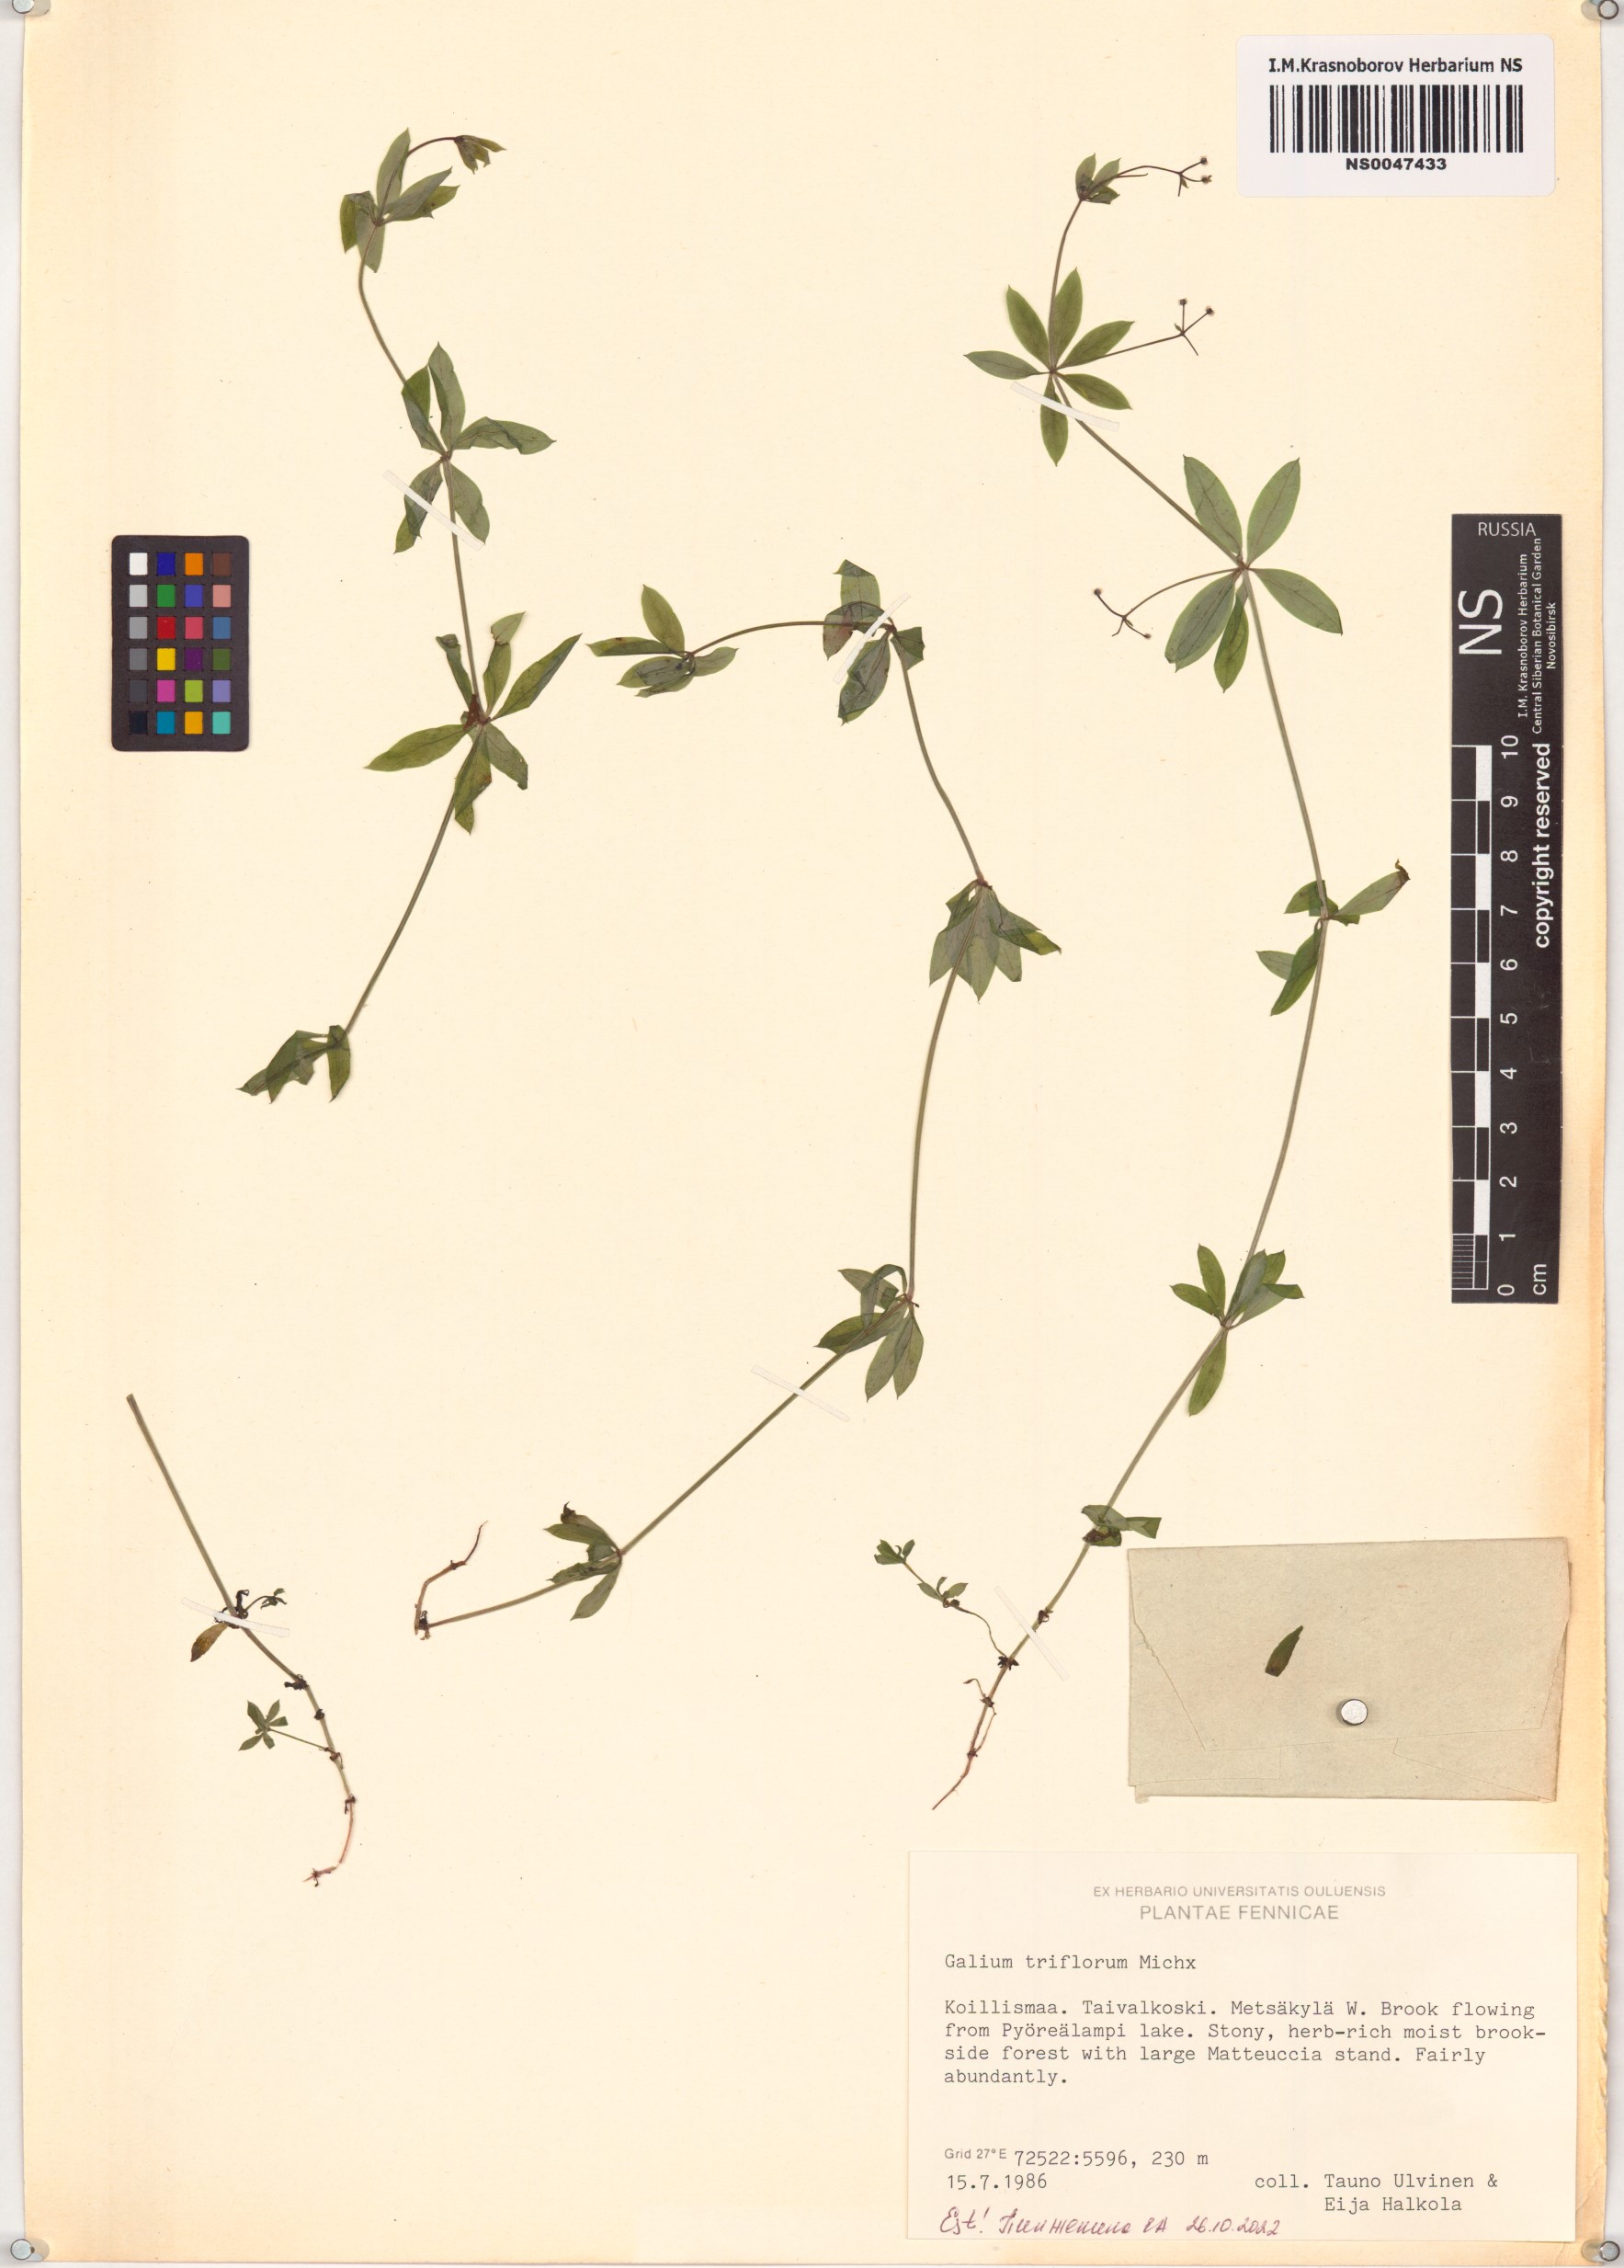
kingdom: Plantae
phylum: Tracheophyta
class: Magnoliopsida
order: Gentianales
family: Rubiaceae
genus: Galium
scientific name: Galium triflorum
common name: Fragrant bedstraw
